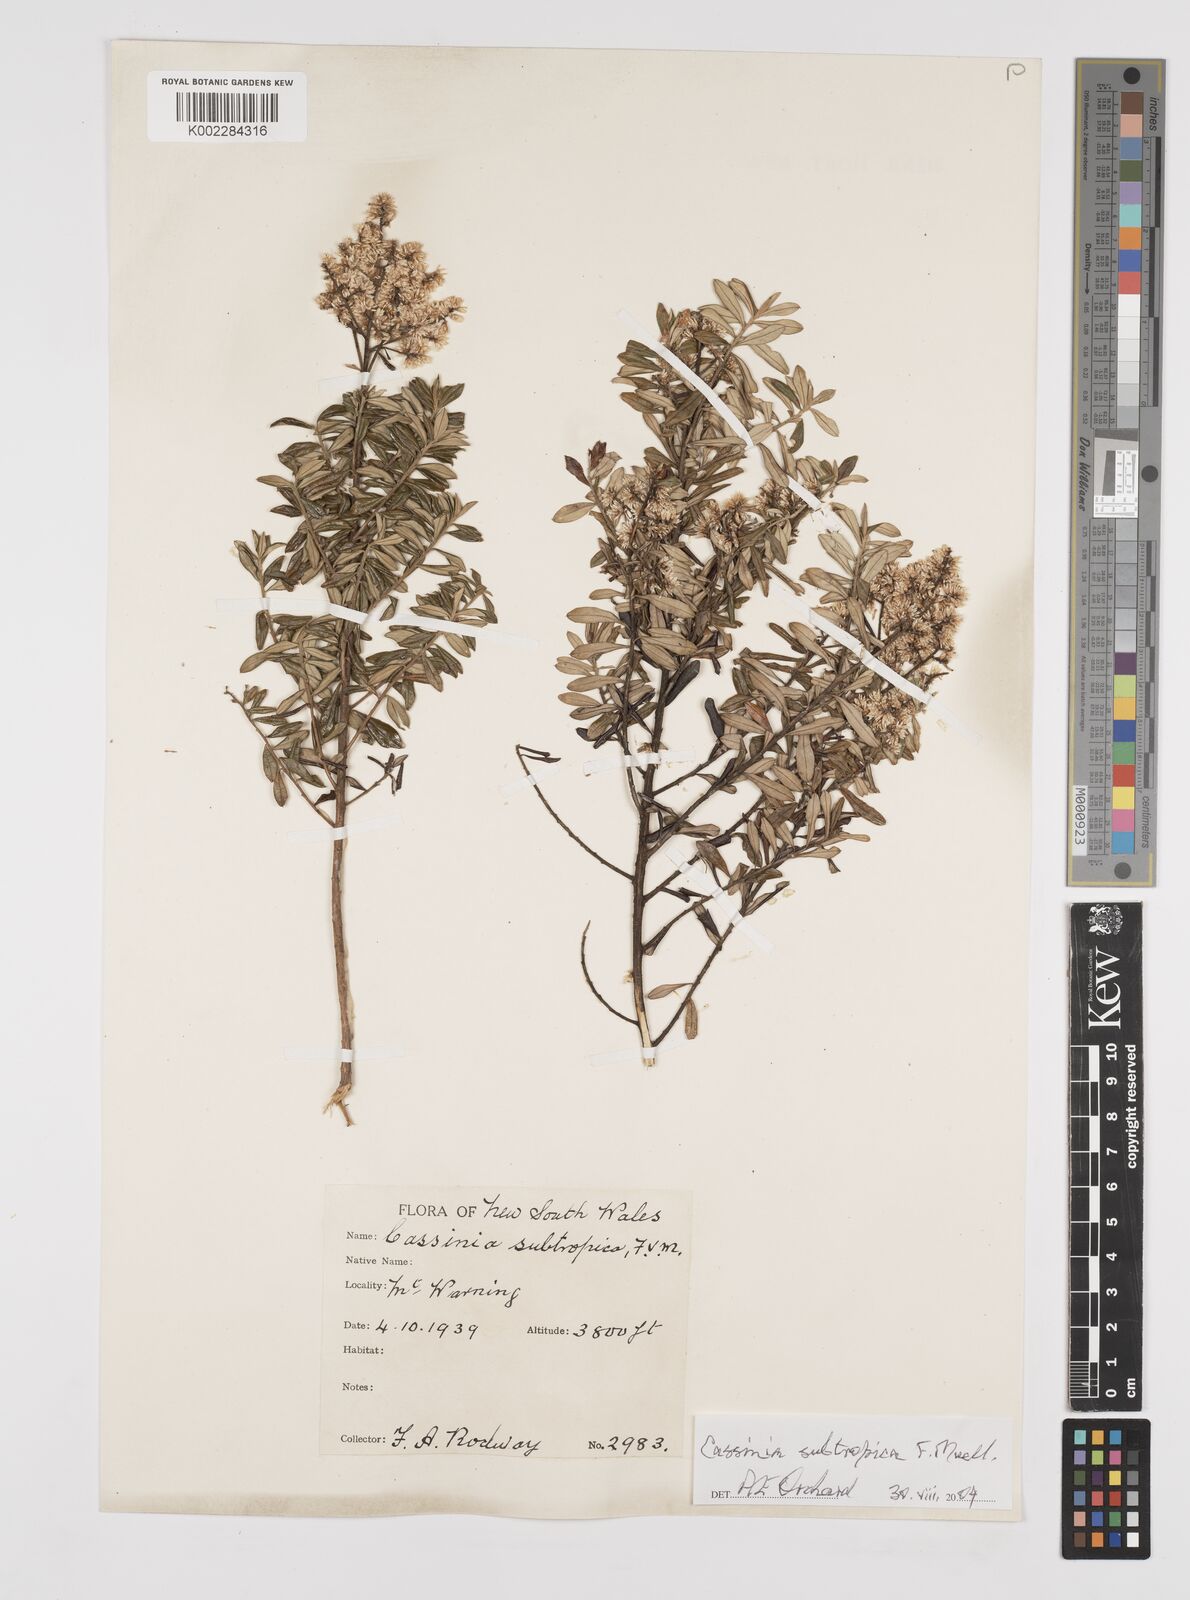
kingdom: Plantae
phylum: Tracheophyta
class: Magnoliopsida
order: Asterales
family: Asteraceae
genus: Cassinia
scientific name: Cassinia subtropica
